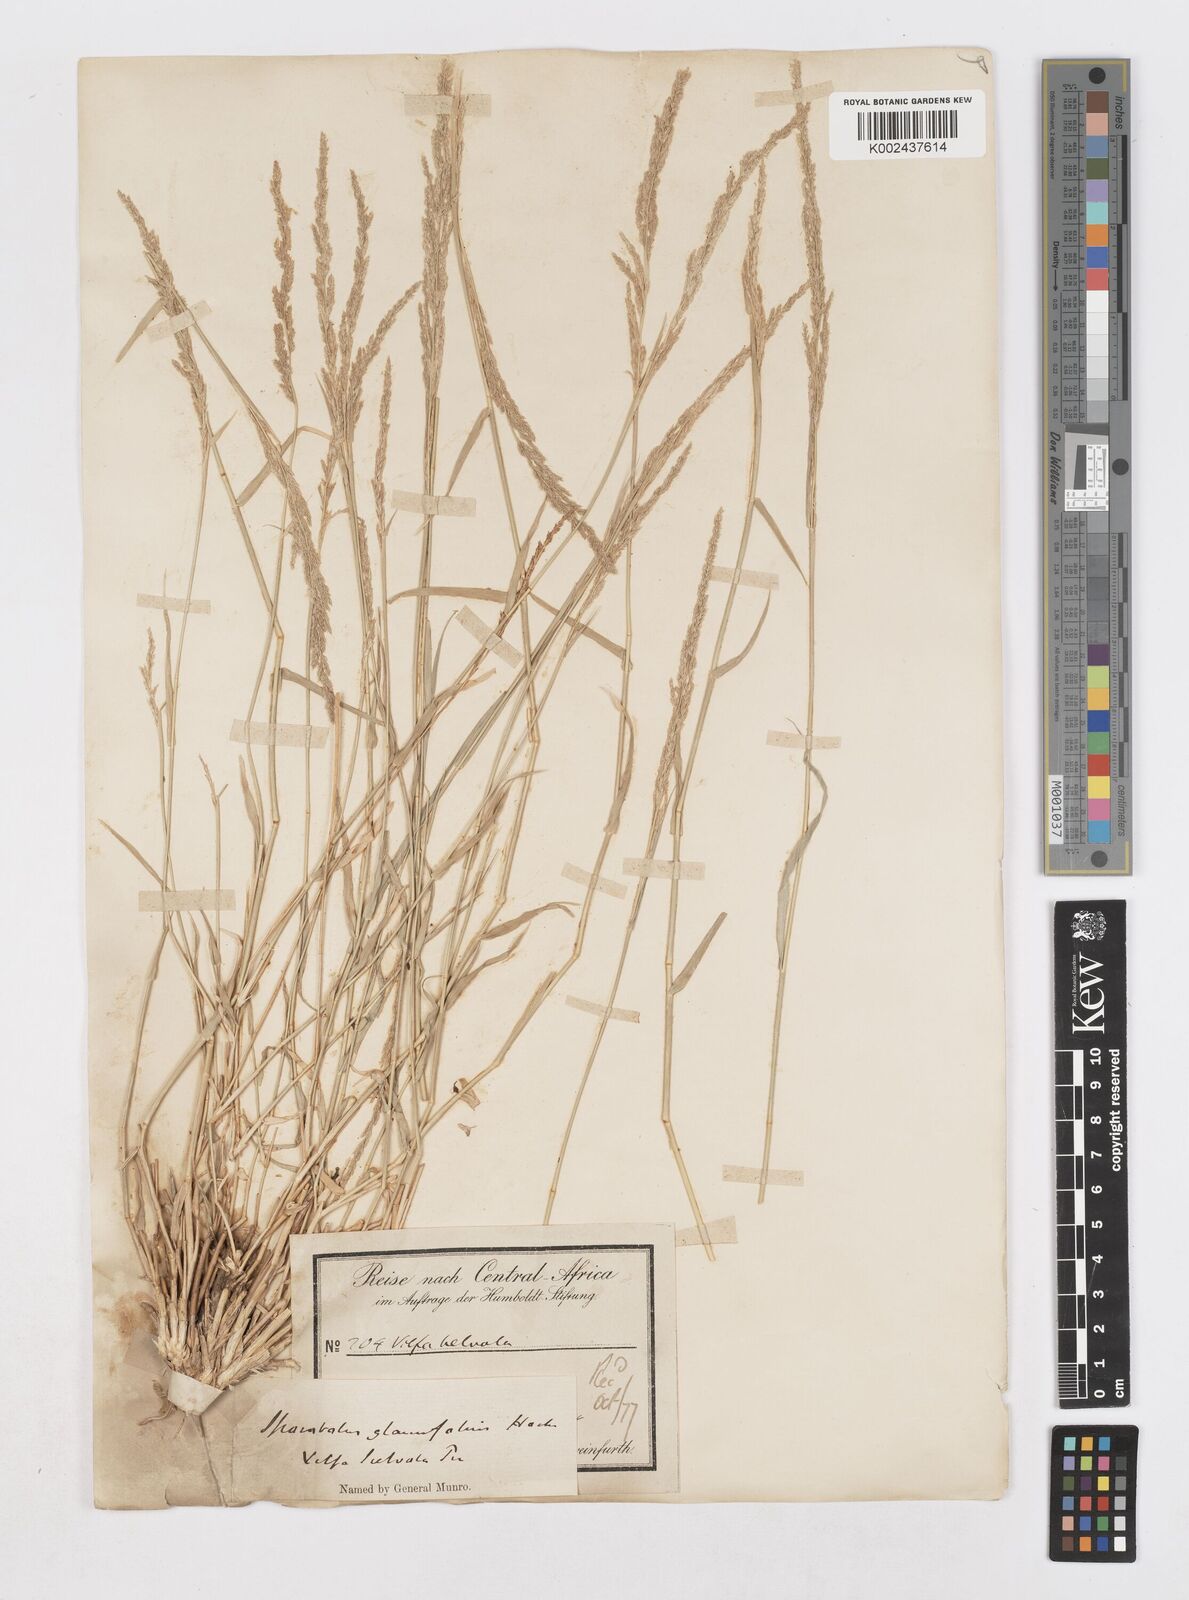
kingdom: Plantae
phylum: Tracheophyta
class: Liliopsida
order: Poales
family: Poaceae
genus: Sporobolus
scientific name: Sporobolus helvolus
